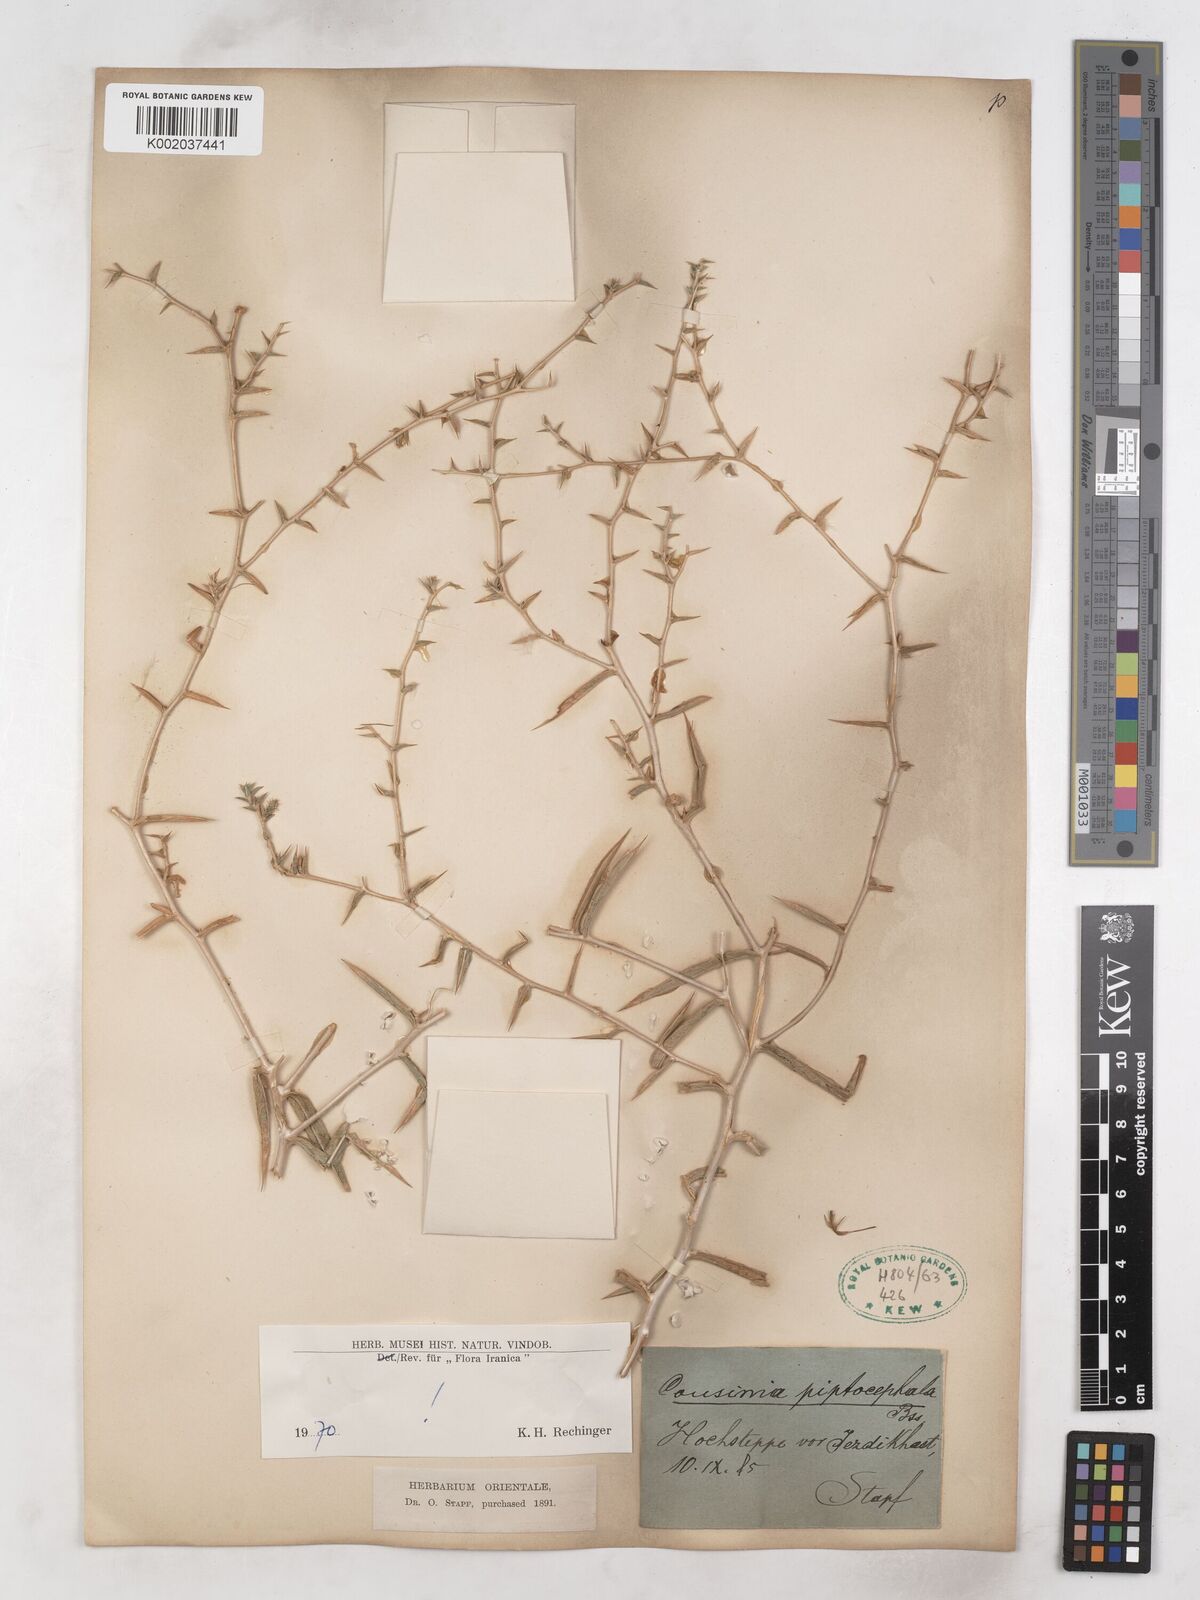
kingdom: Plantae
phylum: Tracheophyta
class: Magnoliopsida
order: Asterales
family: Asteraceae
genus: Cousinia
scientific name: Cousinia piptocephala
